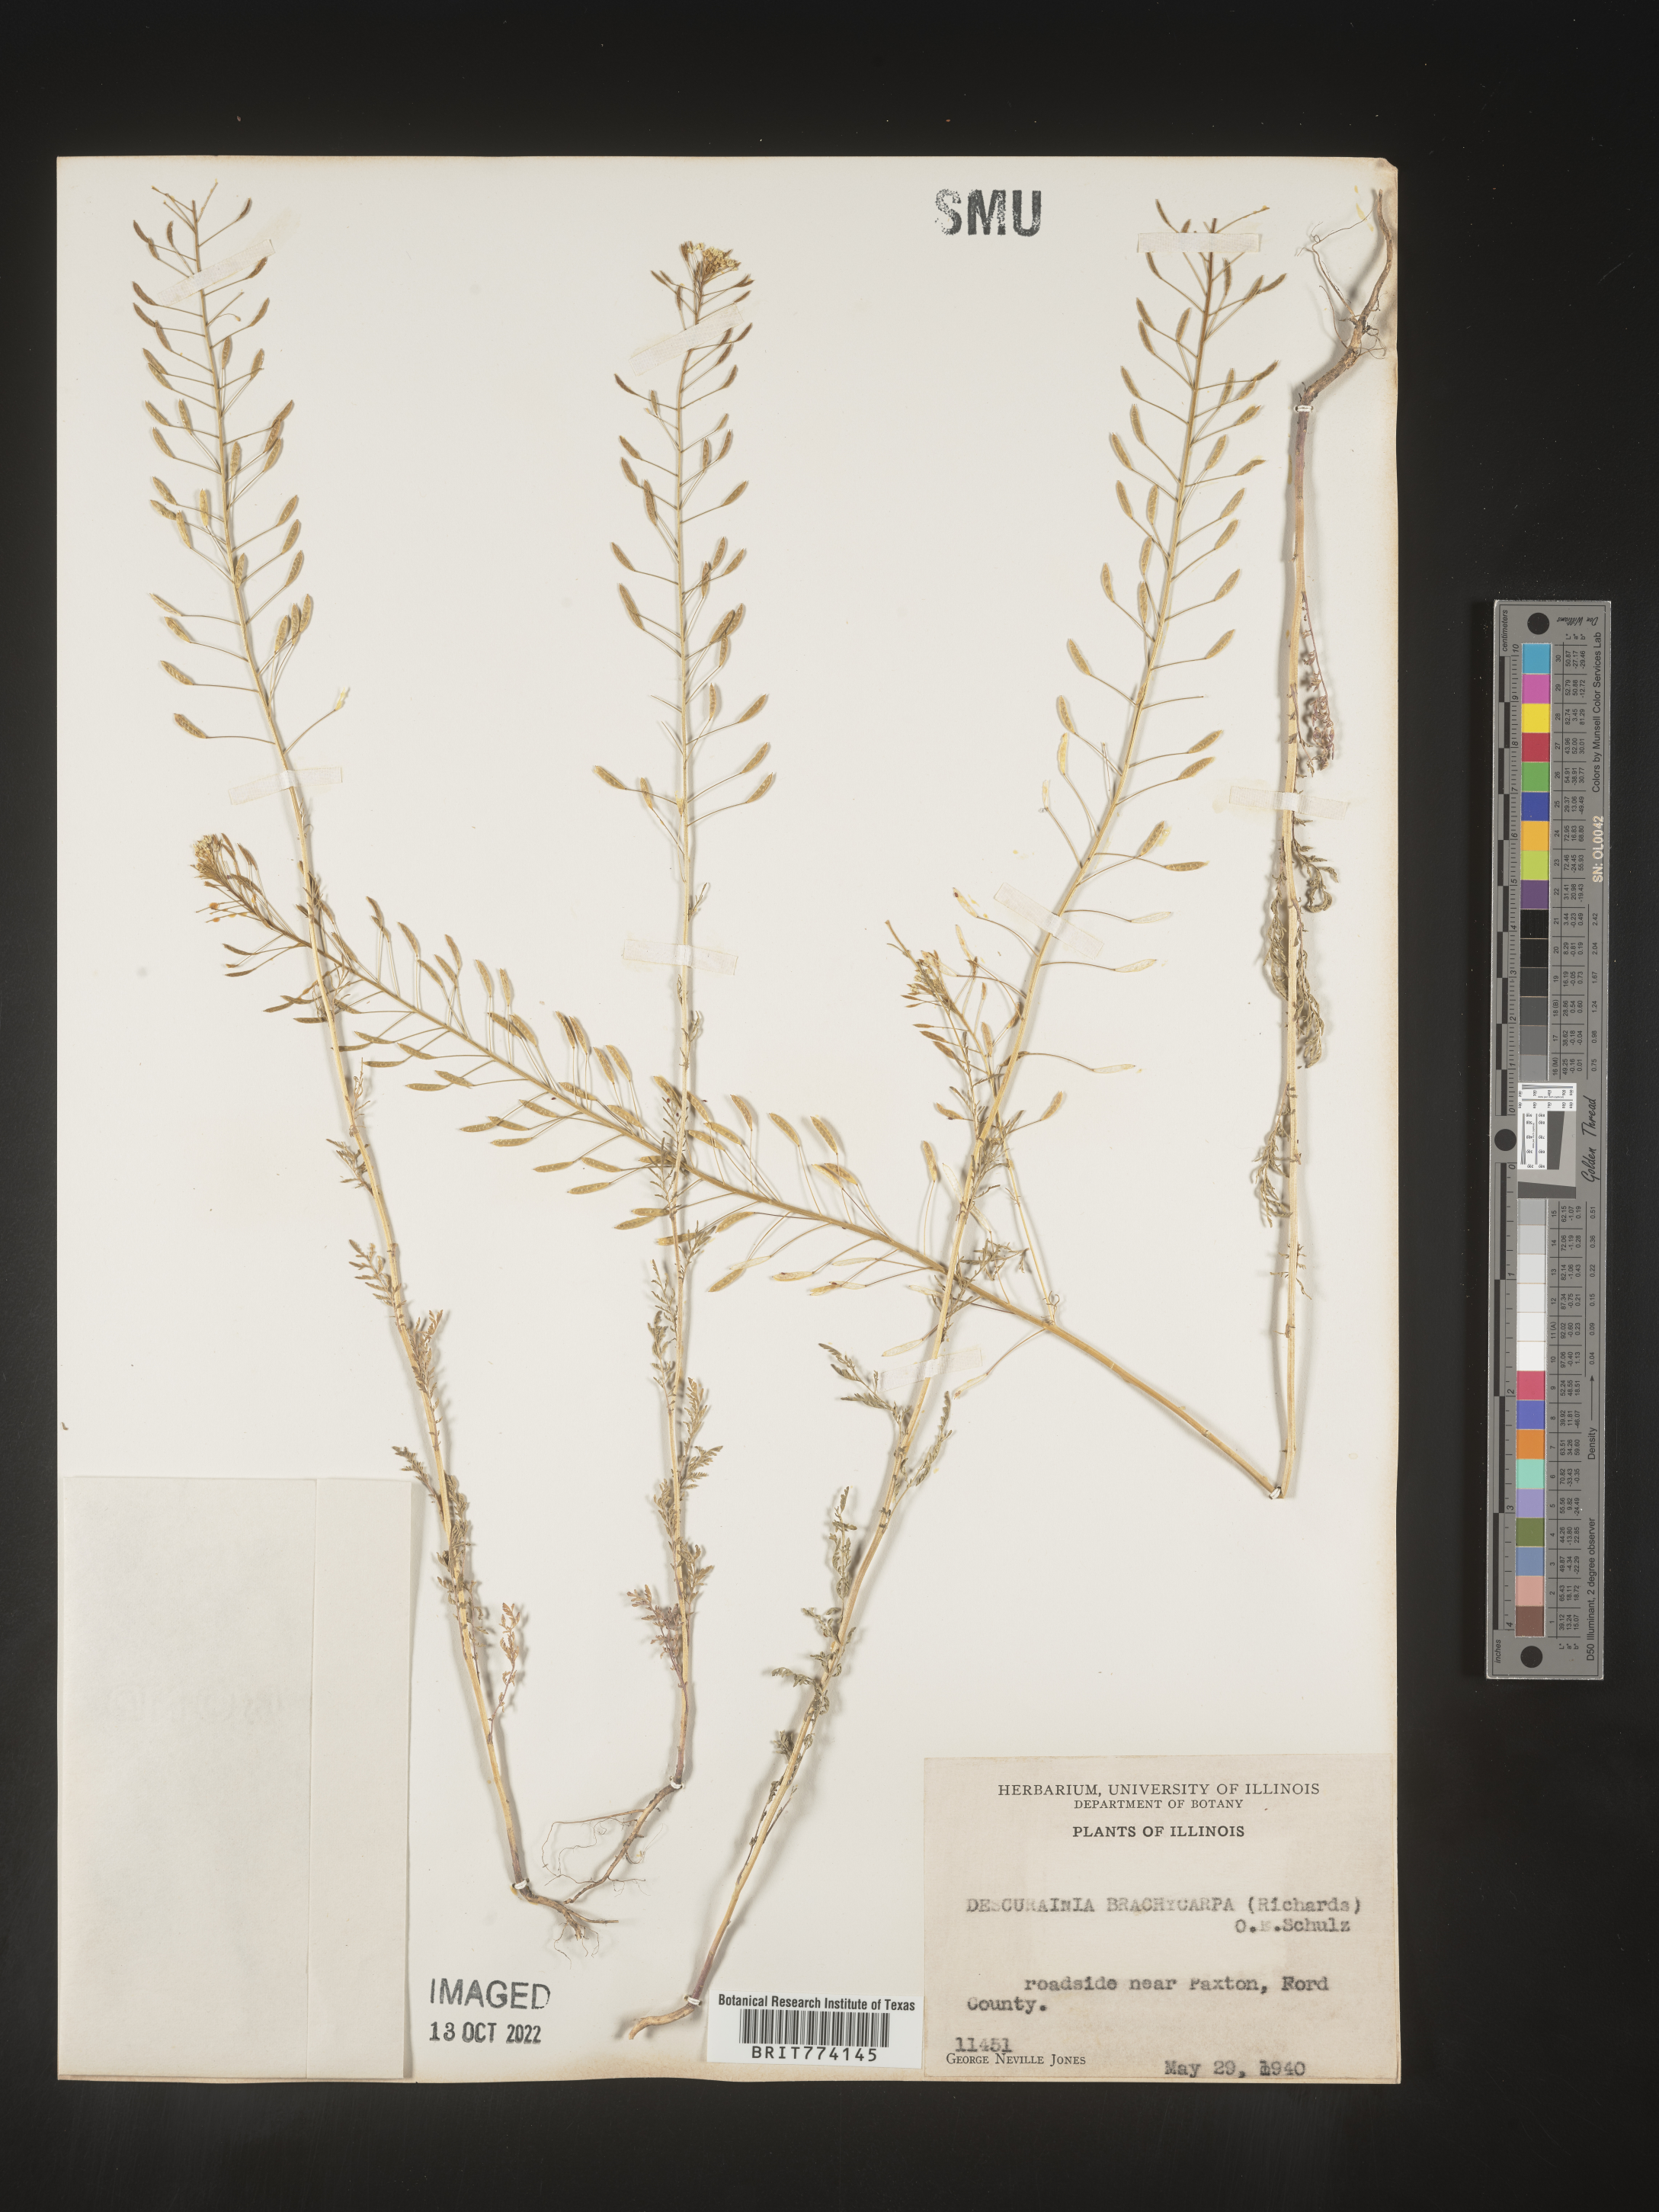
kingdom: Plantae
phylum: Tracheophyta
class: Magnoliopsida
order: Brassicales
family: Brassicaceae
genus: Descurainia
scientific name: Descurainia pinnata
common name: Western tansy mustard
